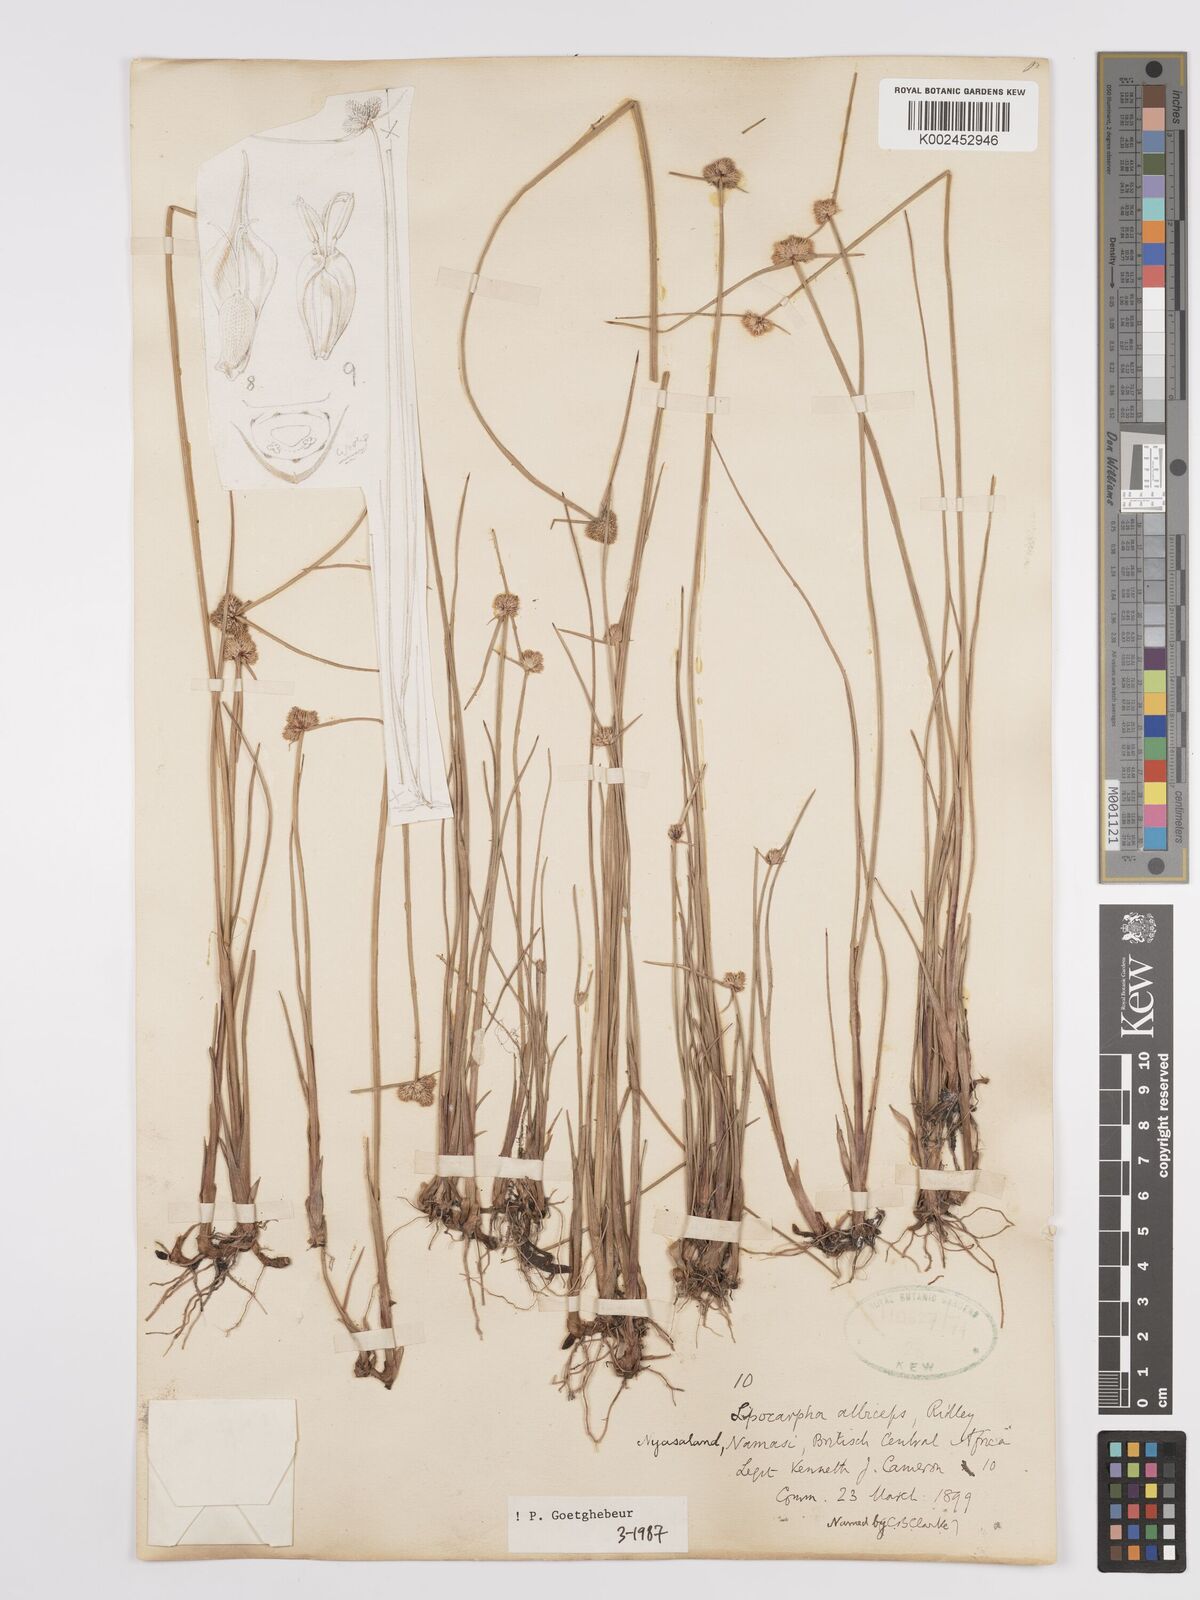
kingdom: Plantae
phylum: Tracheophyta
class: Liliopsida
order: Poales
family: Cyperaceae
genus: Cyperus
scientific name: Cyperus albiceps
